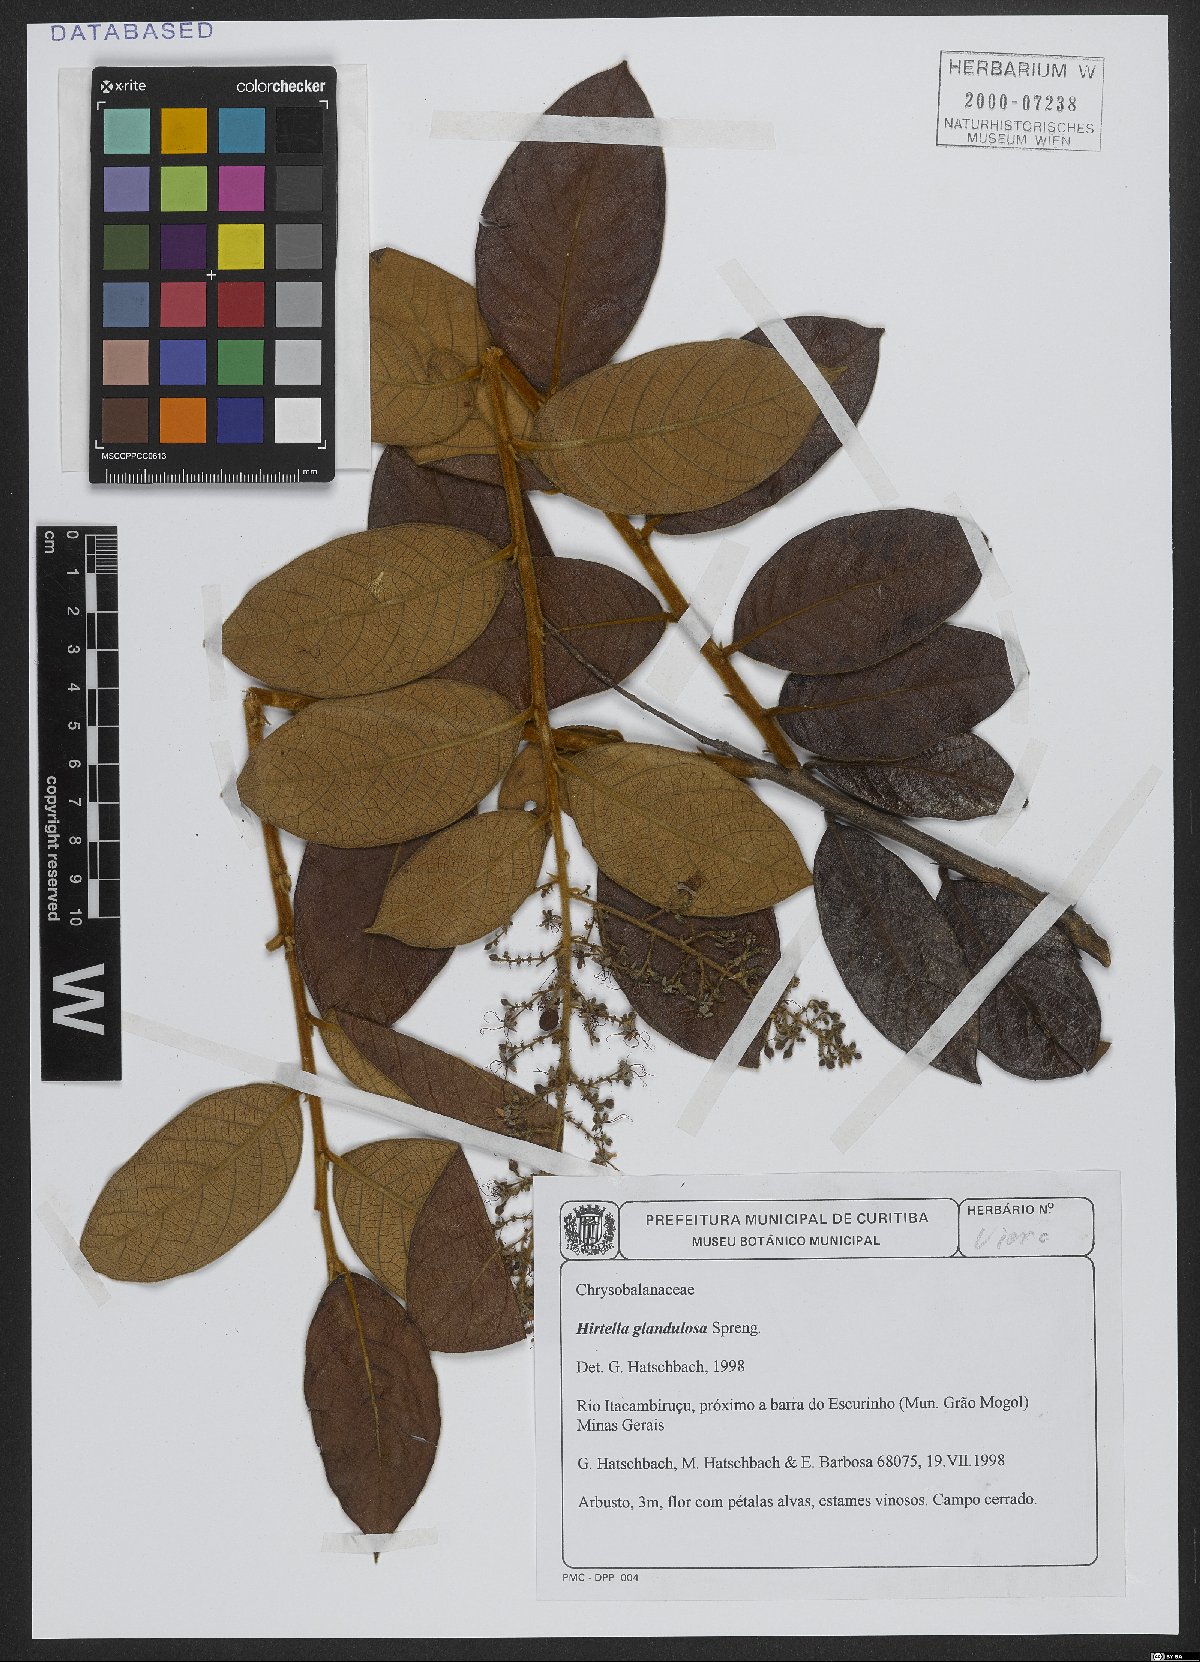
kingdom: Plantae
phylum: Tracheophyta
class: Magnoliopsida
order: Malpighiales
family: Chrysobalanaceae
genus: Hirtella
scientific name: Hirtella glandulosa
